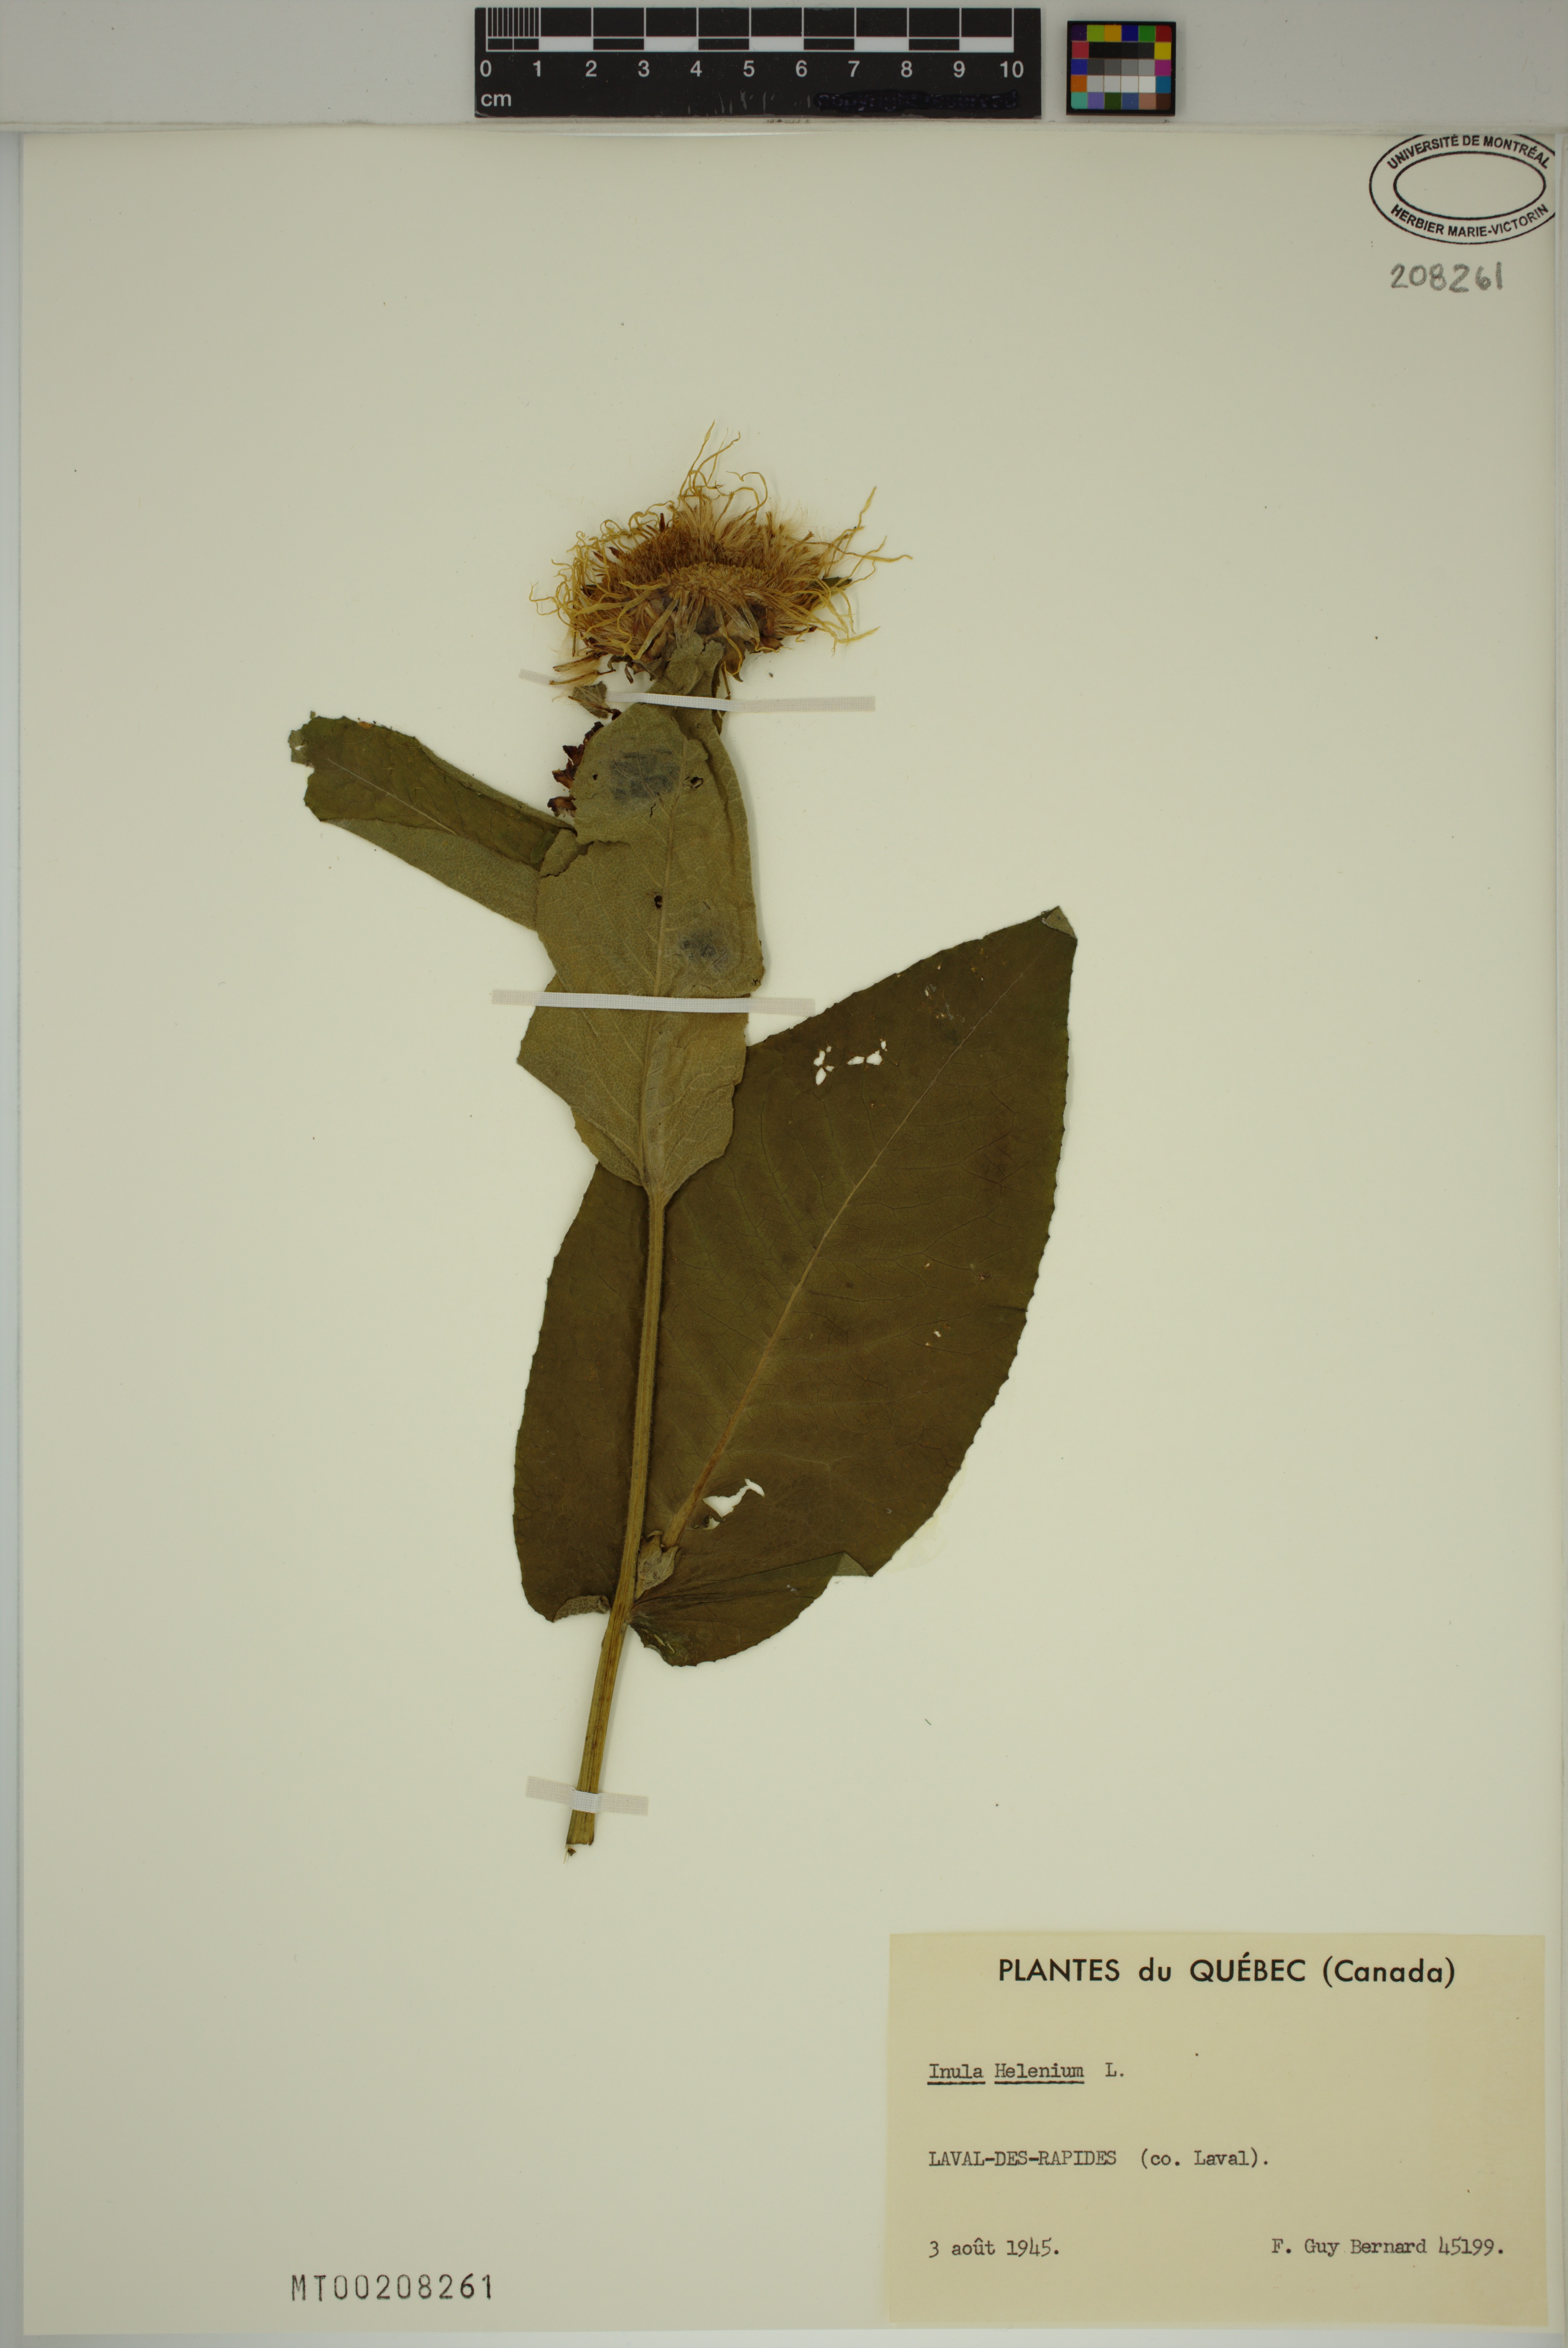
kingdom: Plantae
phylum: Tracheophyta
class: Magnoliopsida
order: Asterales
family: Asteraceae
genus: Inula
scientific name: Inula helenium
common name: Elecampane
